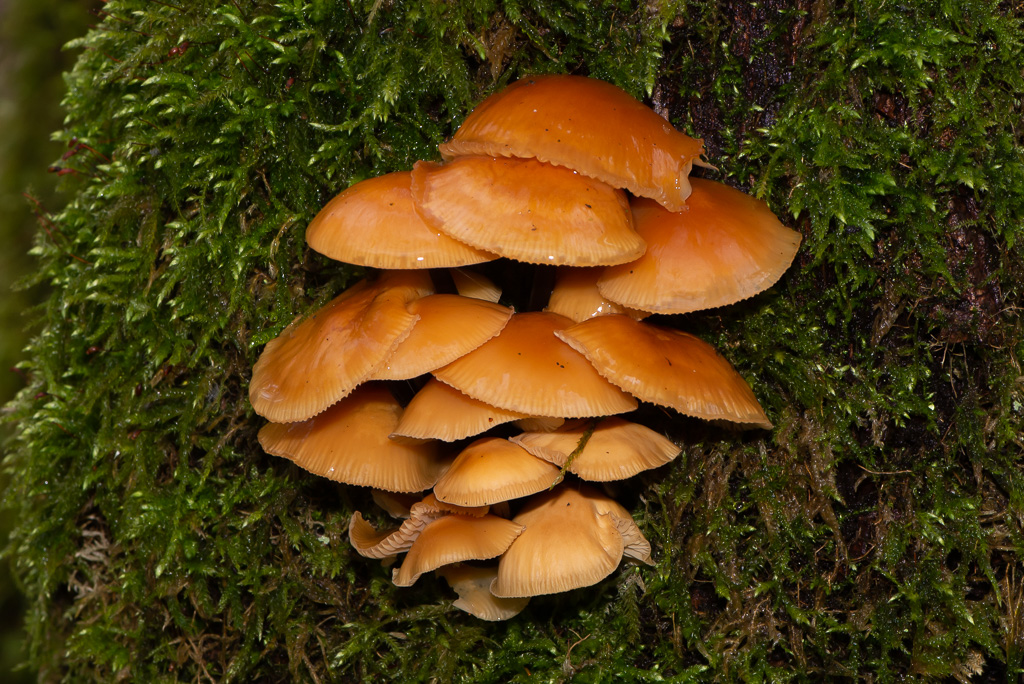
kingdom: Fungi
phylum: Basidiomycota
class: Agaricomycetes
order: Agaricales
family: Physalacriaceae
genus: Flammulina
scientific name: Flammulina
